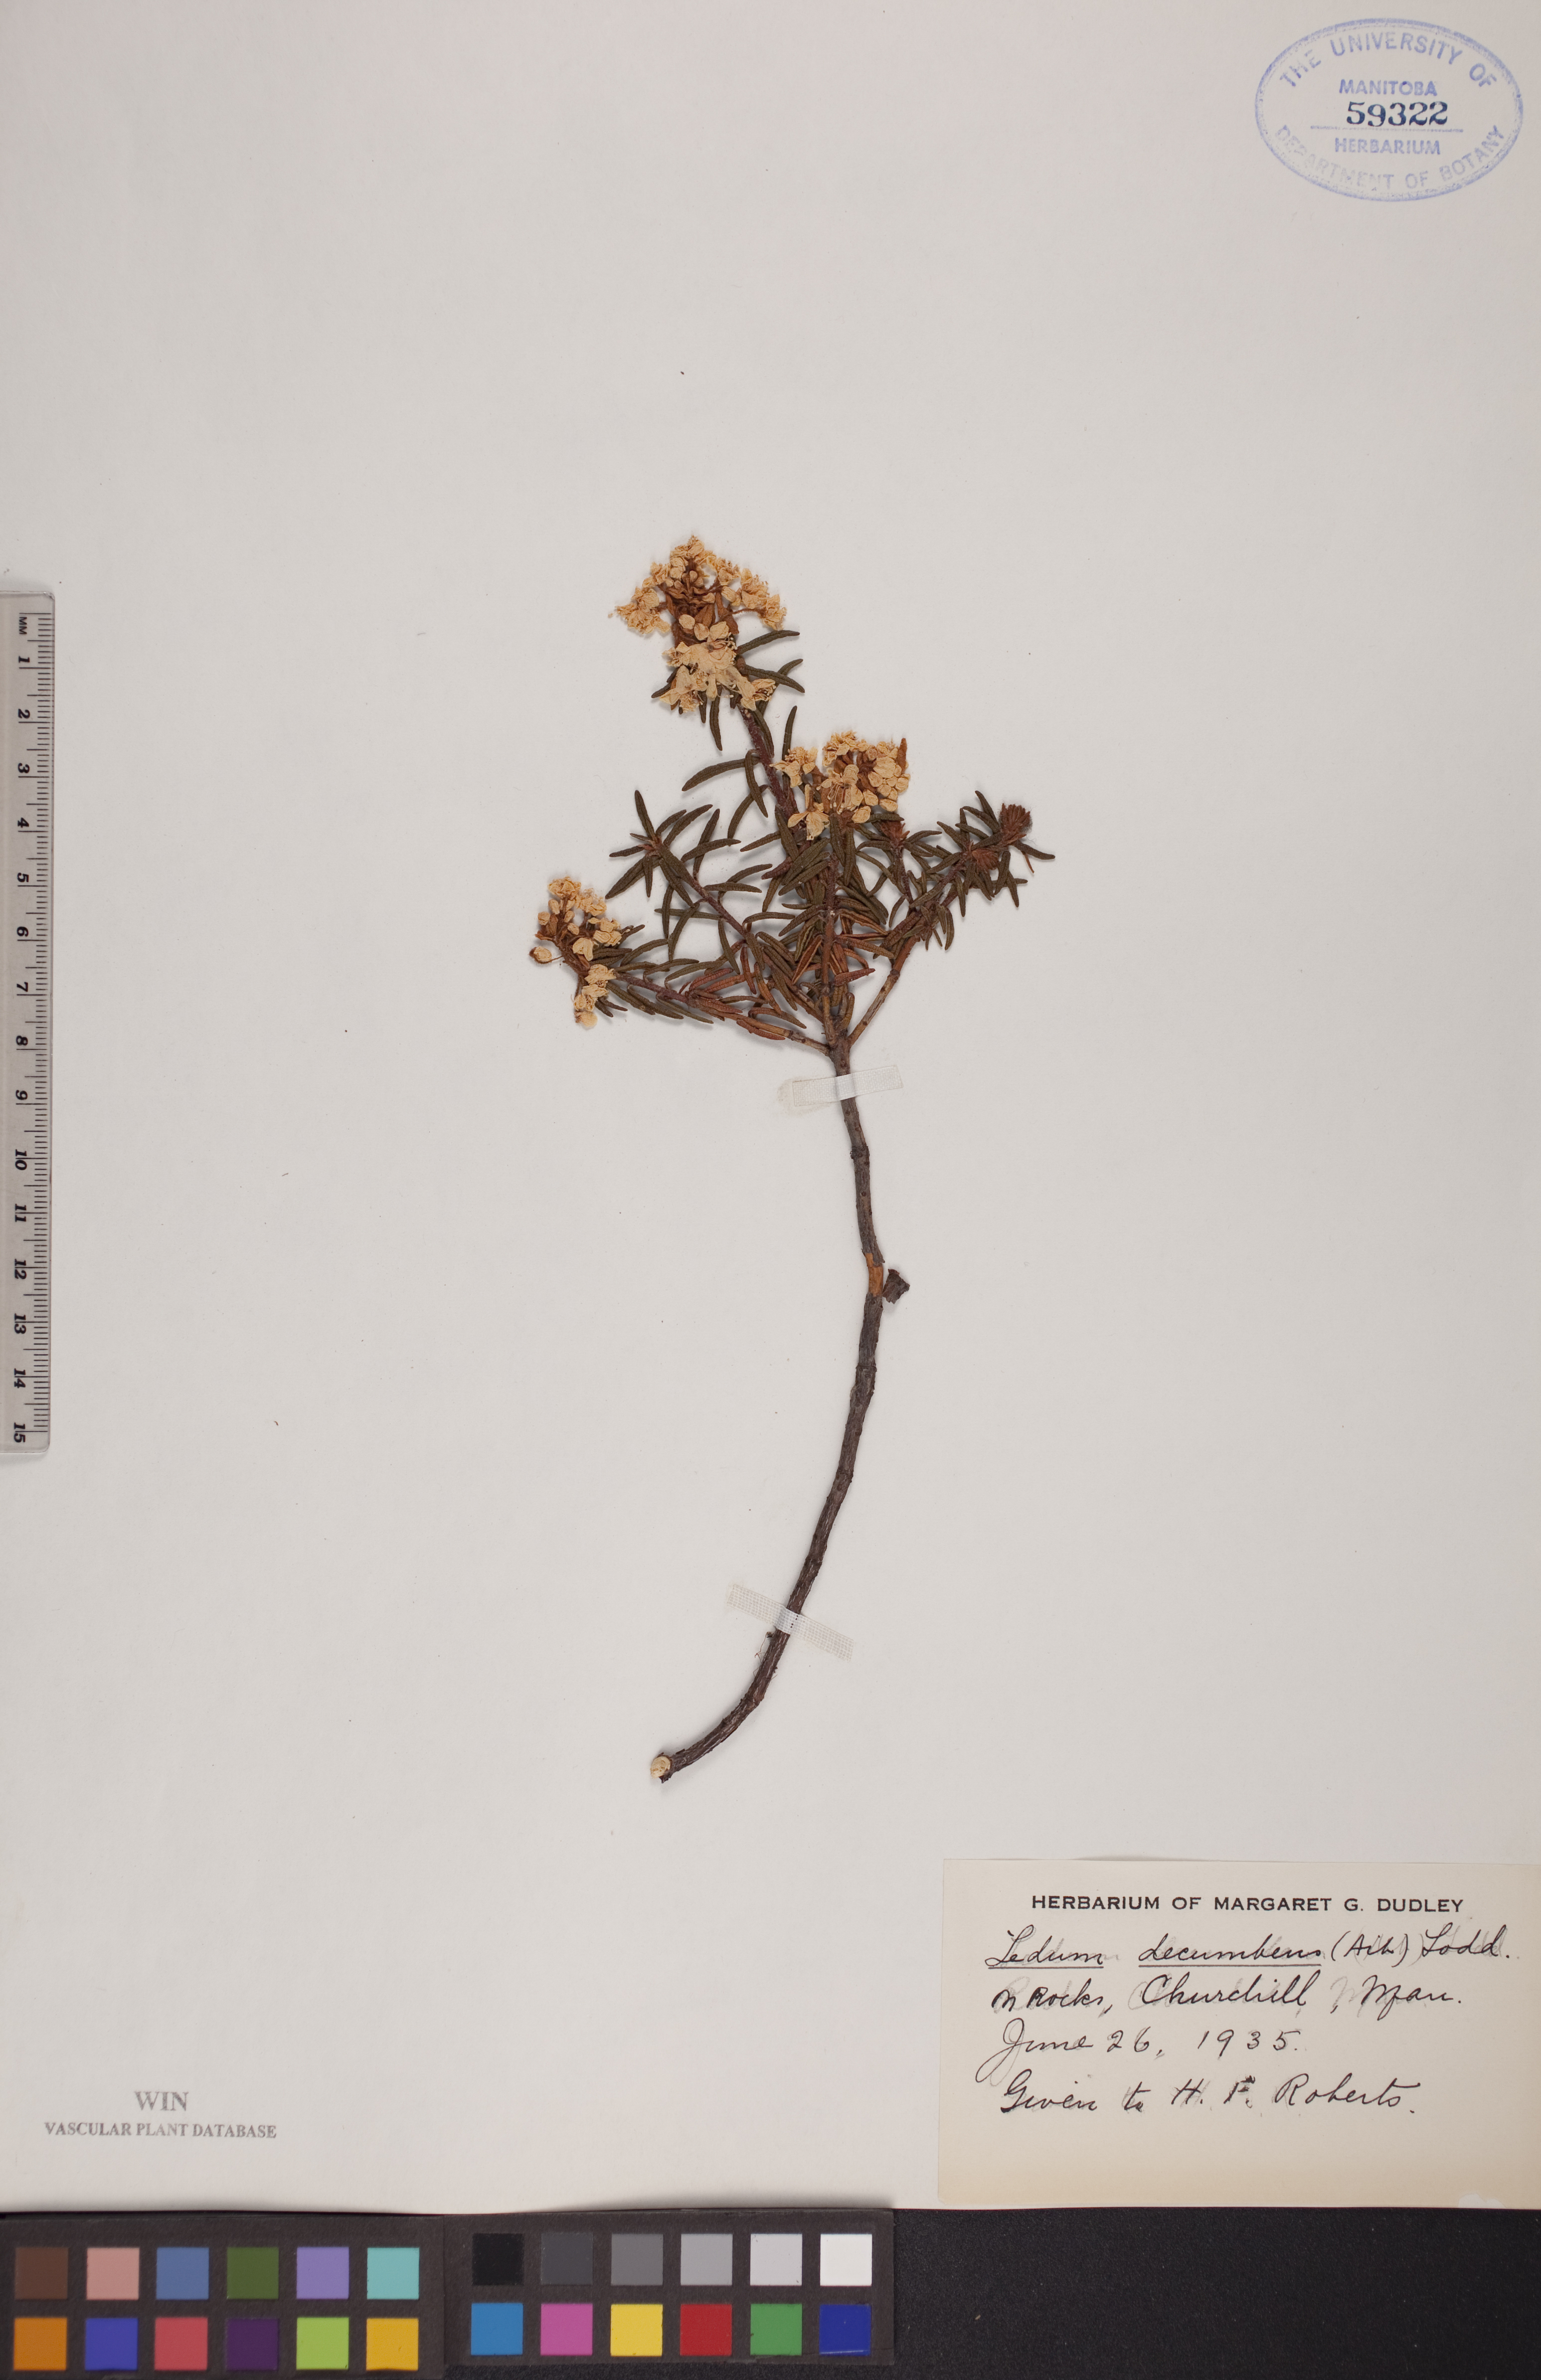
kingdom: Plantae
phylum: Tracheophyta
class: Magnoliopsida
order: Ericales
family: Ericaceae
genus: Rhododendron
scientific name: Rhododendron tomentosum
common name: Marsh labrador tea
